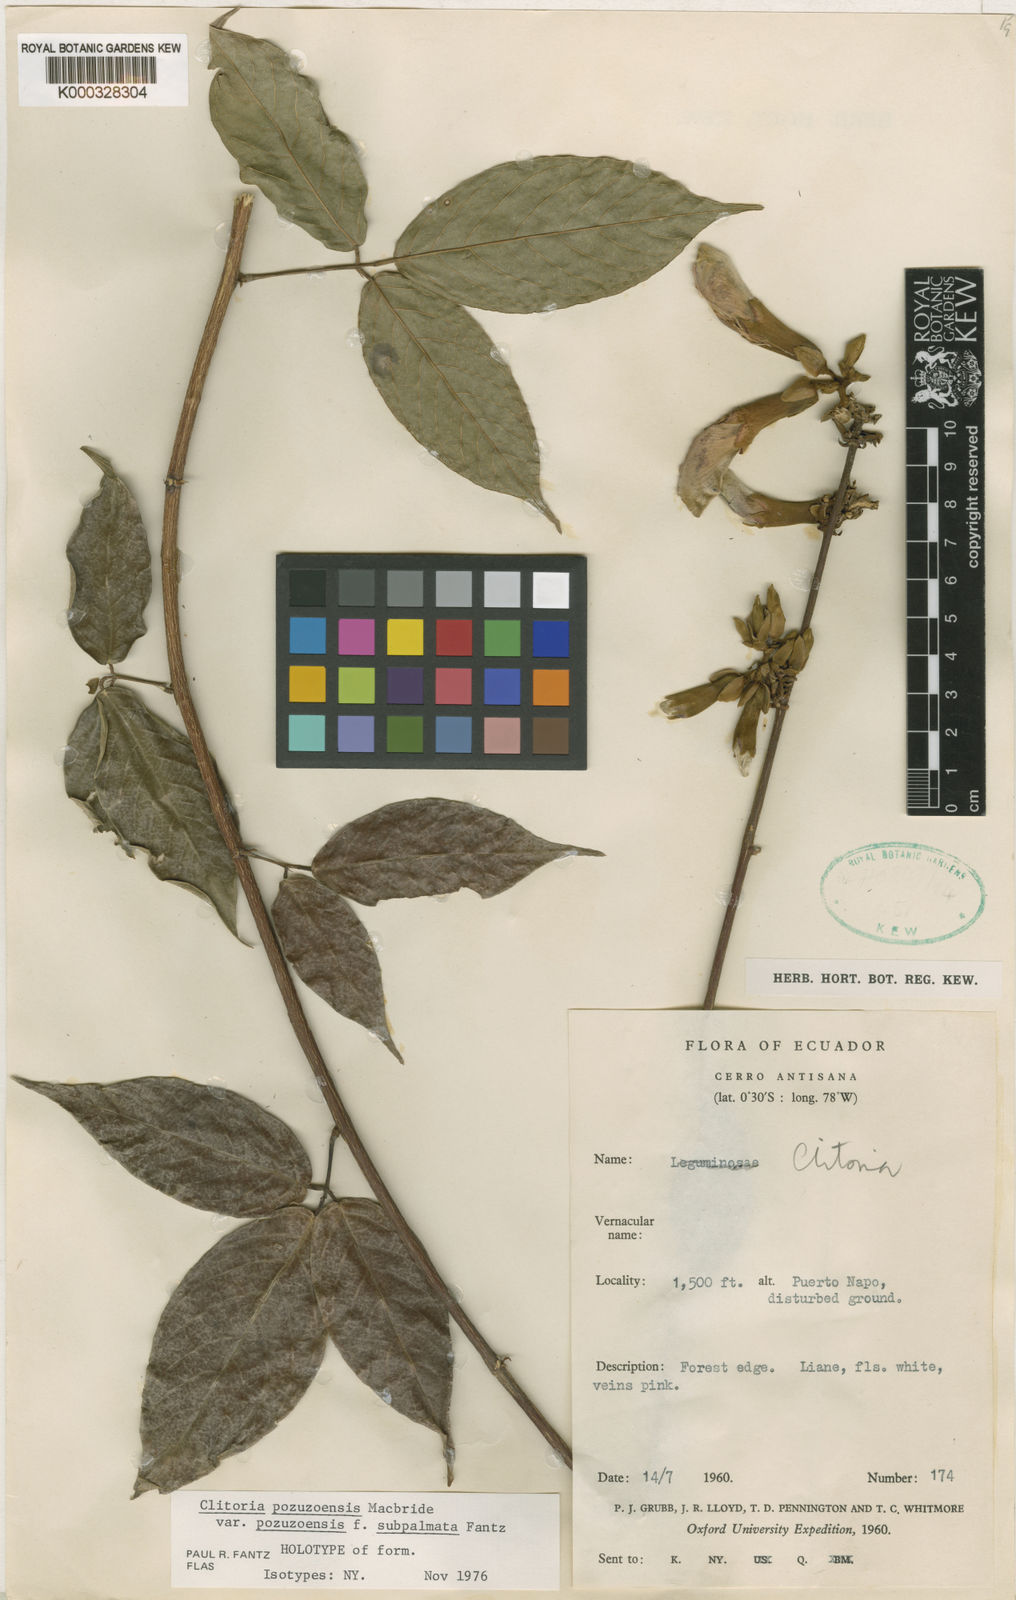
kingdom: Plantae
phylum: Tracheophyta
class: Magnoliopsida
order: Fabales
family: Fabaceae
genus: Clitoria
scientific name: Clitoria pozuzoensis
